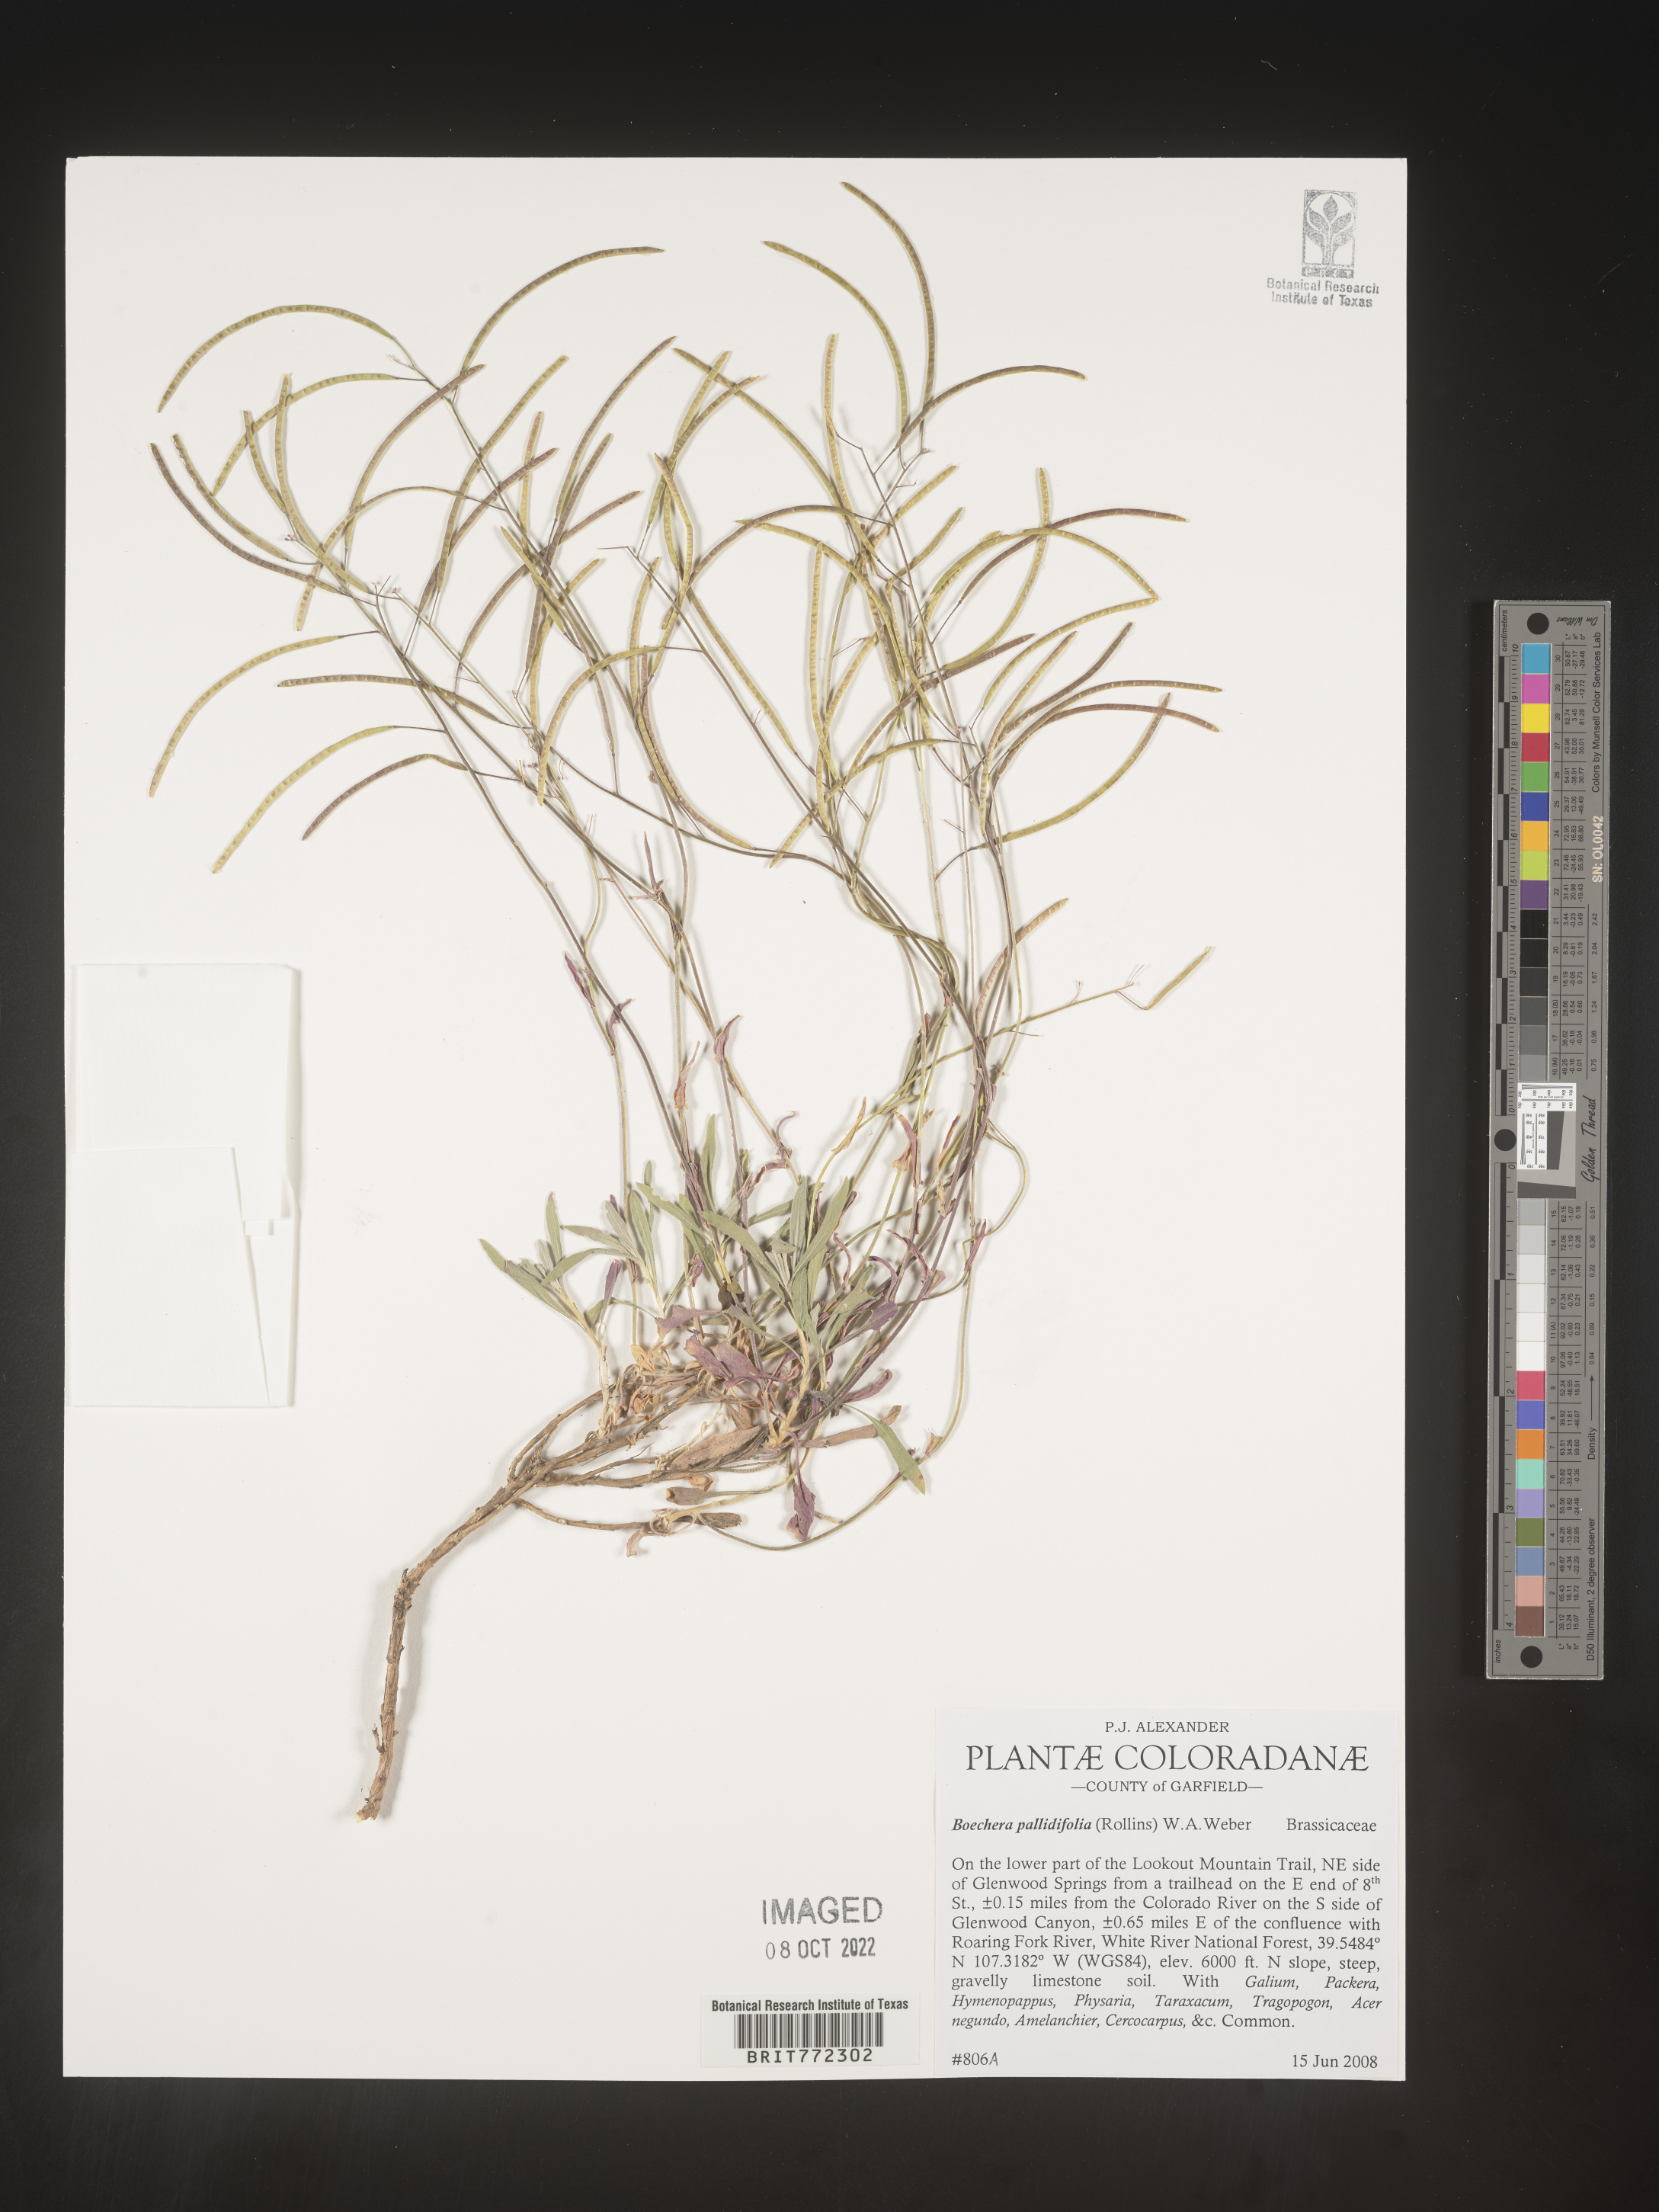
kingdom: Plantae
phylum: Tracheophyta
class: Magnoliopsida
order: Brassicales
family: Brassicaceae
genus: Boechera
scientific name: Boechera
